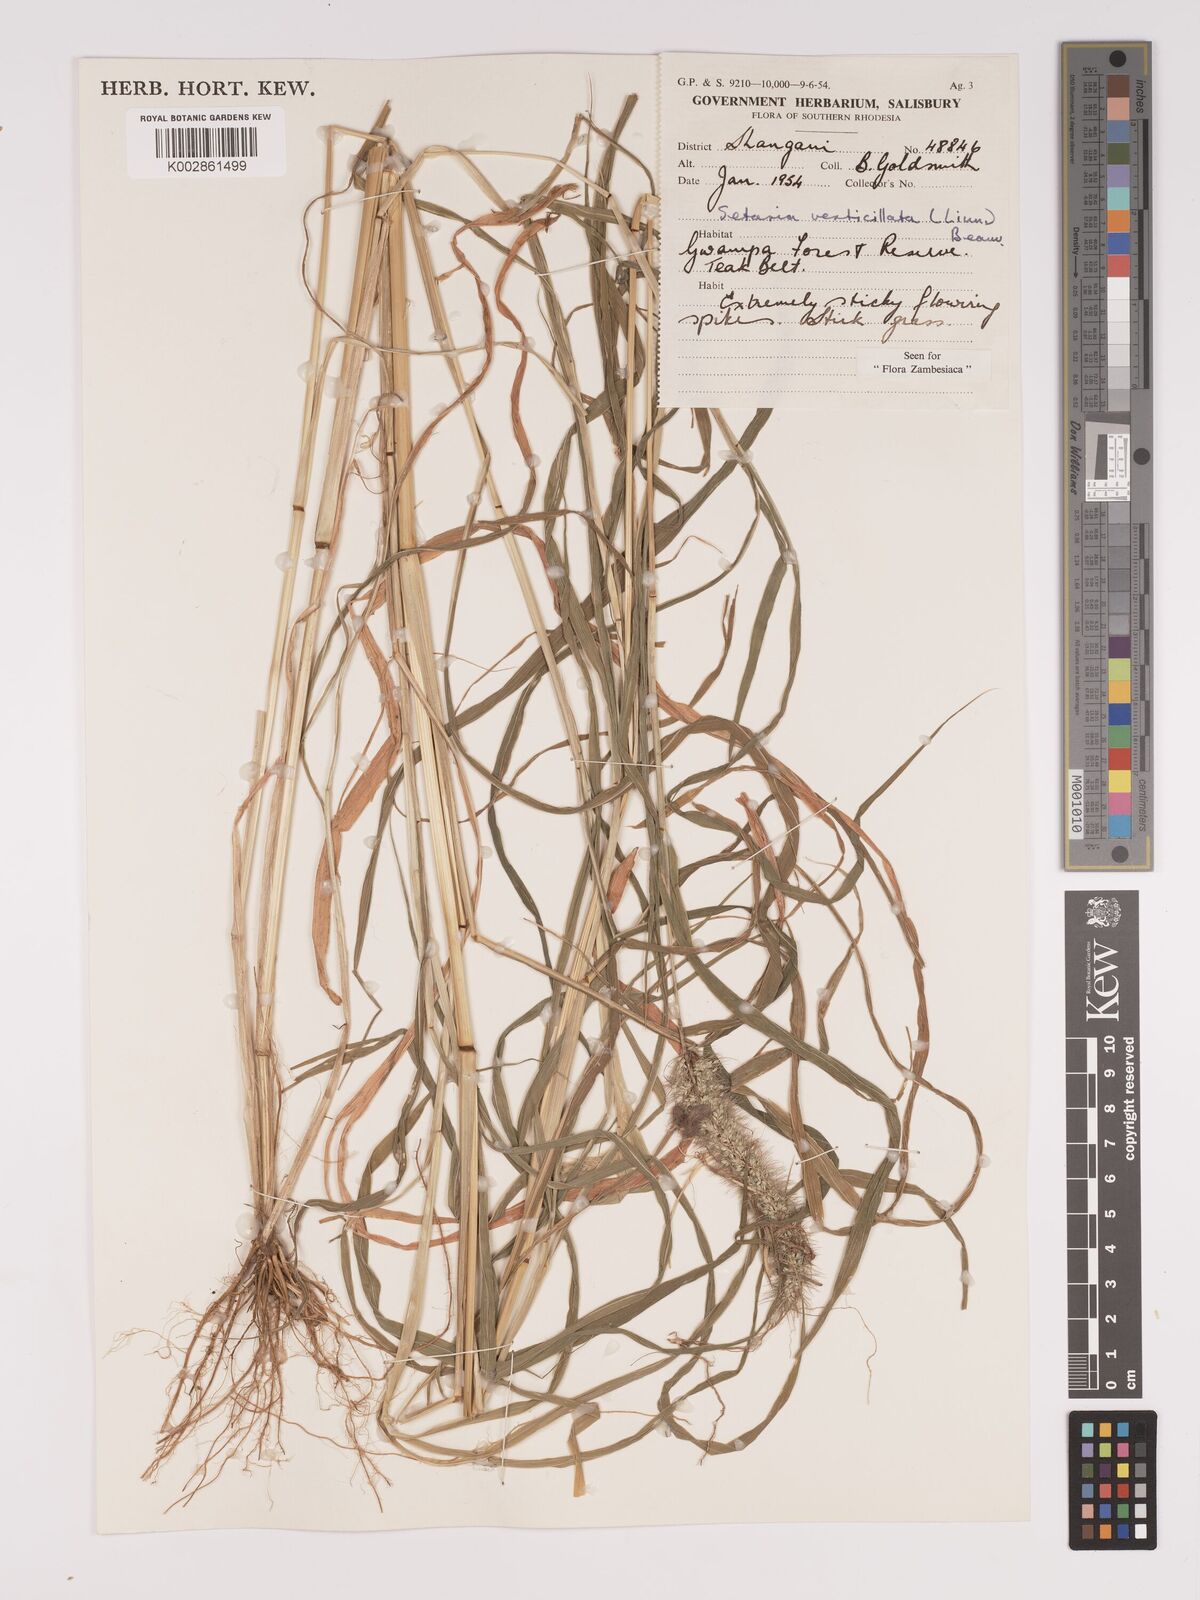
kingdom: Plantae
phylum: Tracheophyta
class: Liliopsida
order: Poales
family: Poaceae
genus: Setaria
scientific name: Setaria verticillata
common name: Hooked bristlegrass
